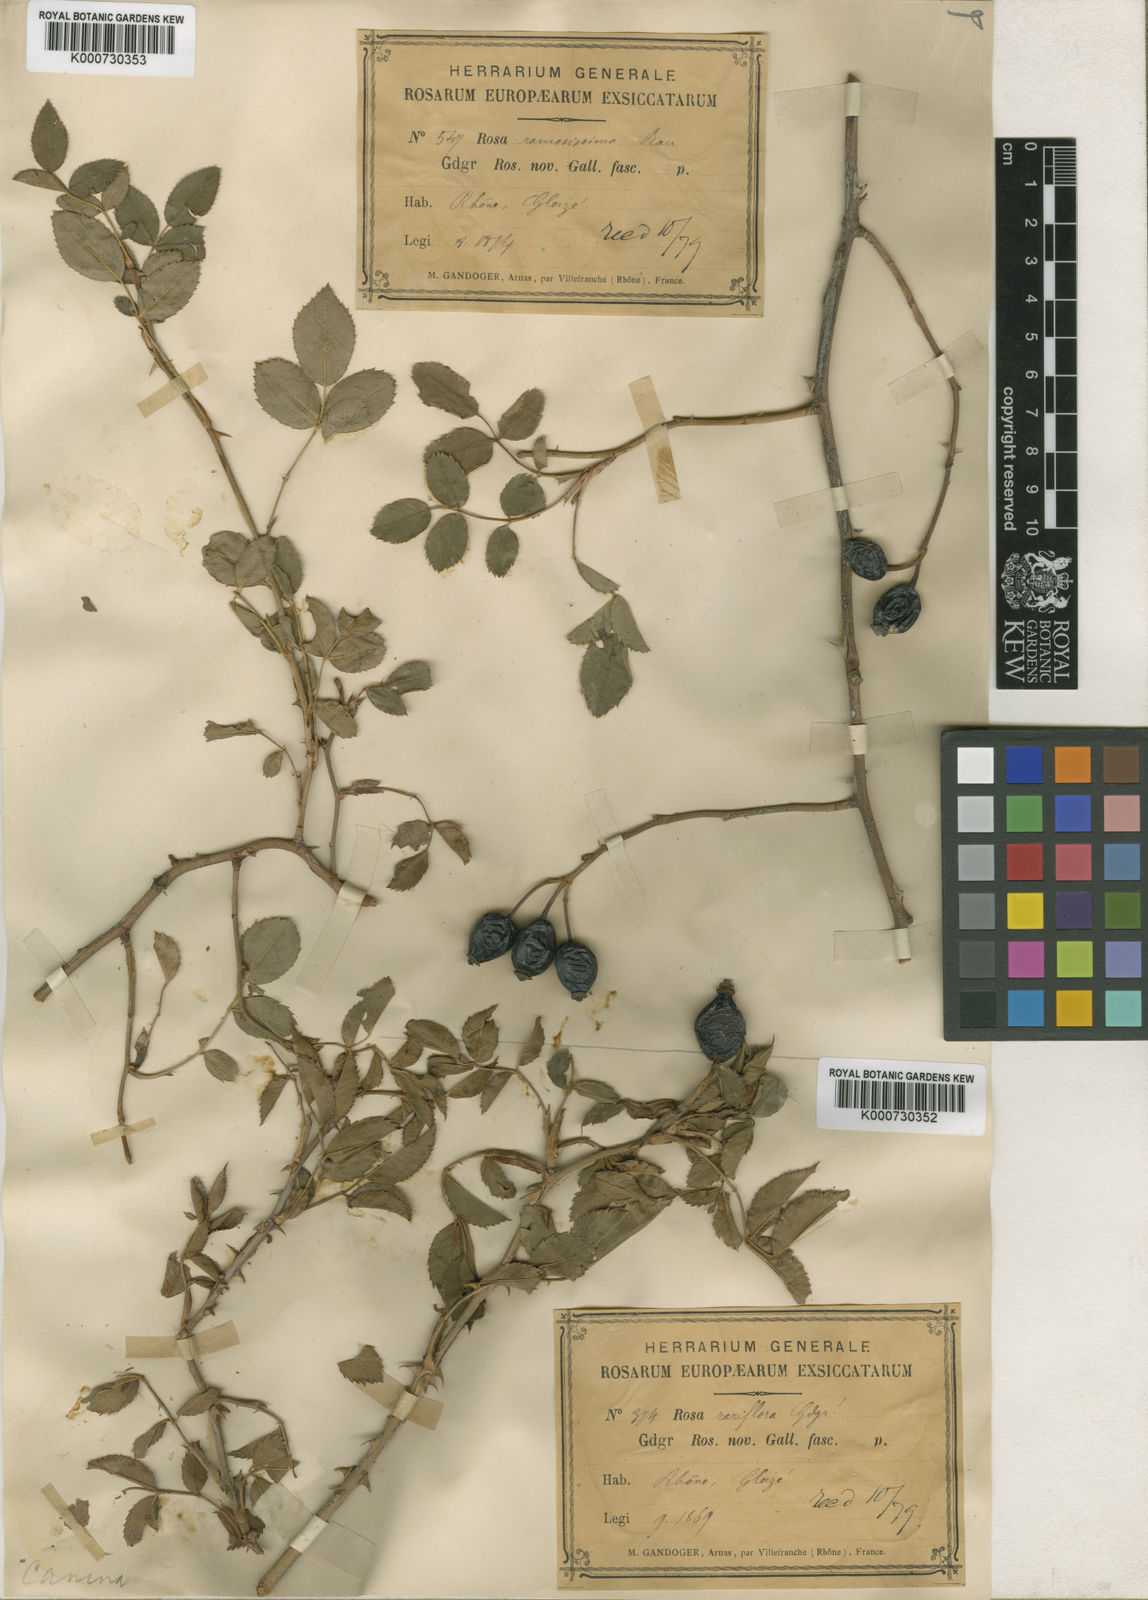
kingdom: Plantae
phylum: Tracheophyta
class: Magnoliopsida
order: Rosales
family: Rosaceae
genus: Rosa
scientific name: Rosa canina
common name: Dog rose
